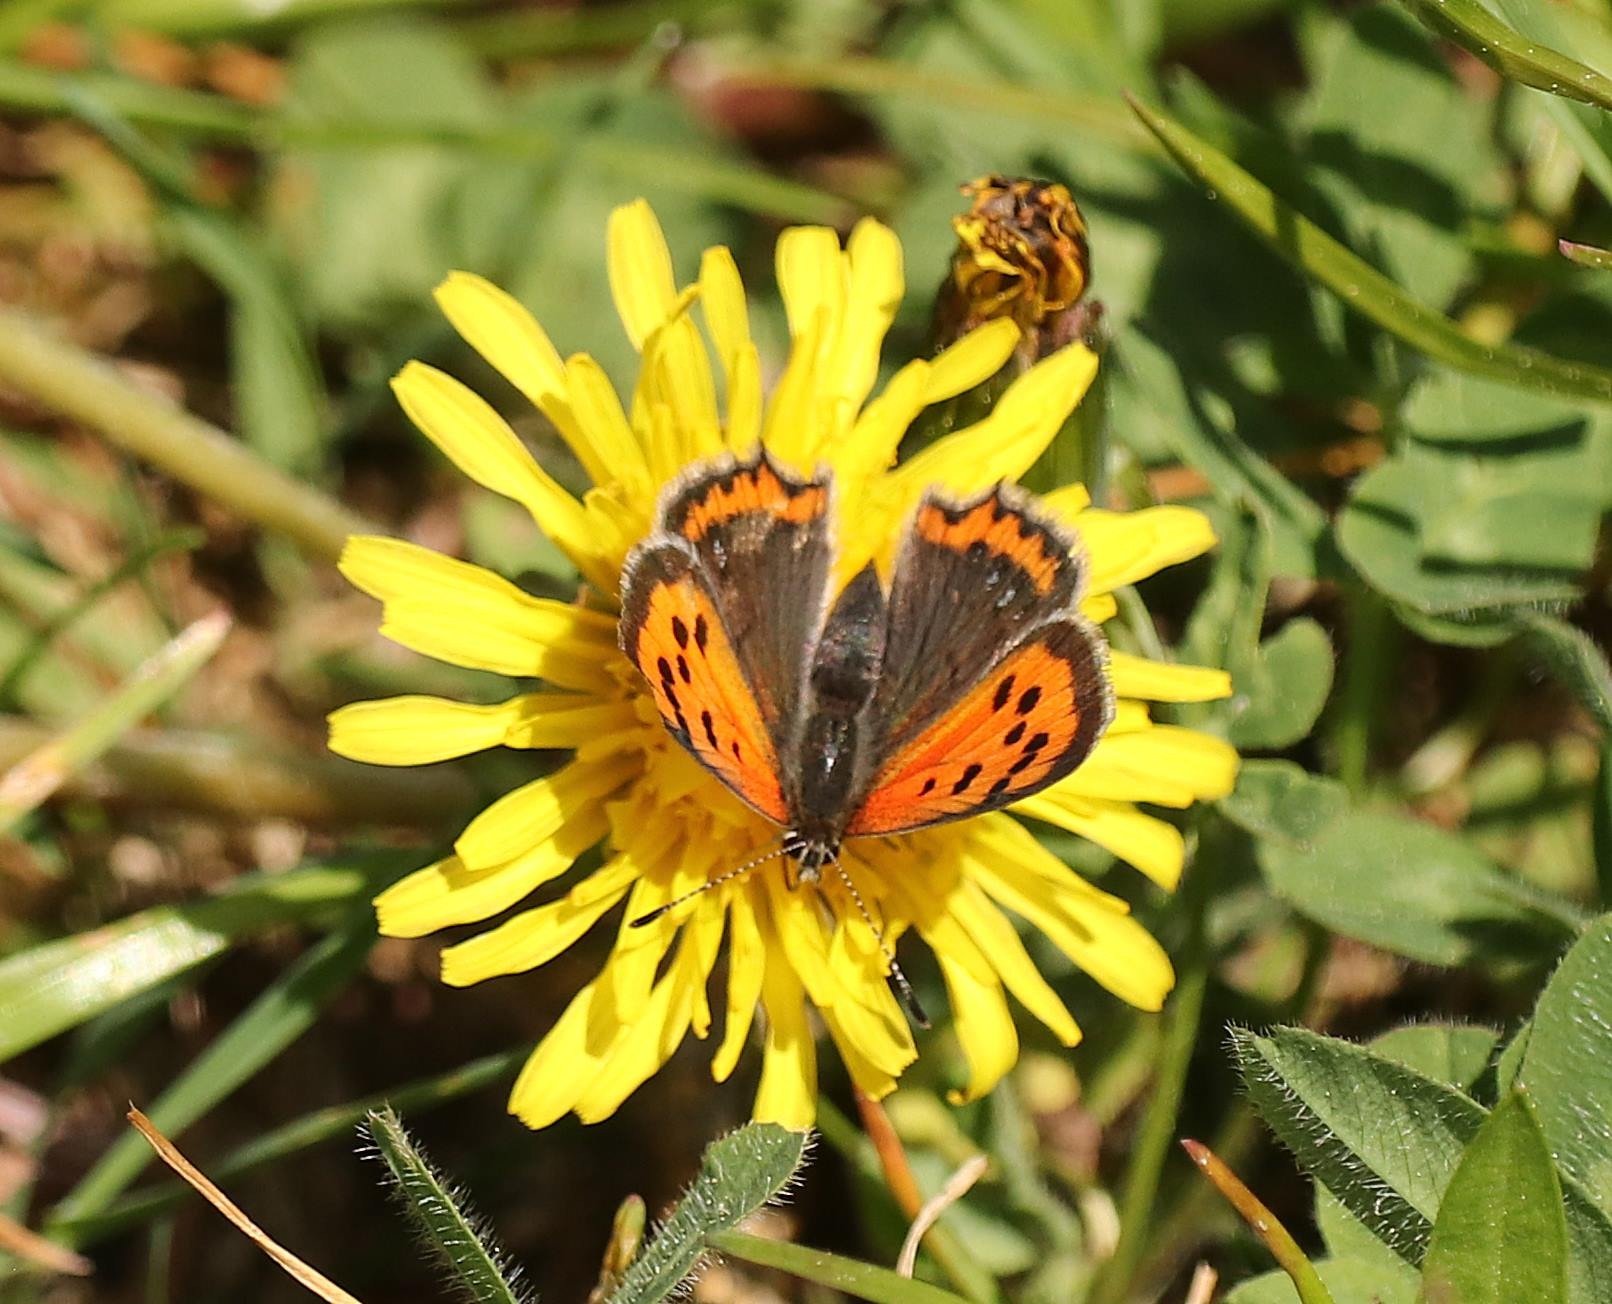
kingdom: Animalia
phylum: Arthropoda
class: Insecta
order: Lepidoptera
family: Lycaenidae
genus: Lycaena
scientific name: Lycaena phlaeas
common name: Lille ildfugl
